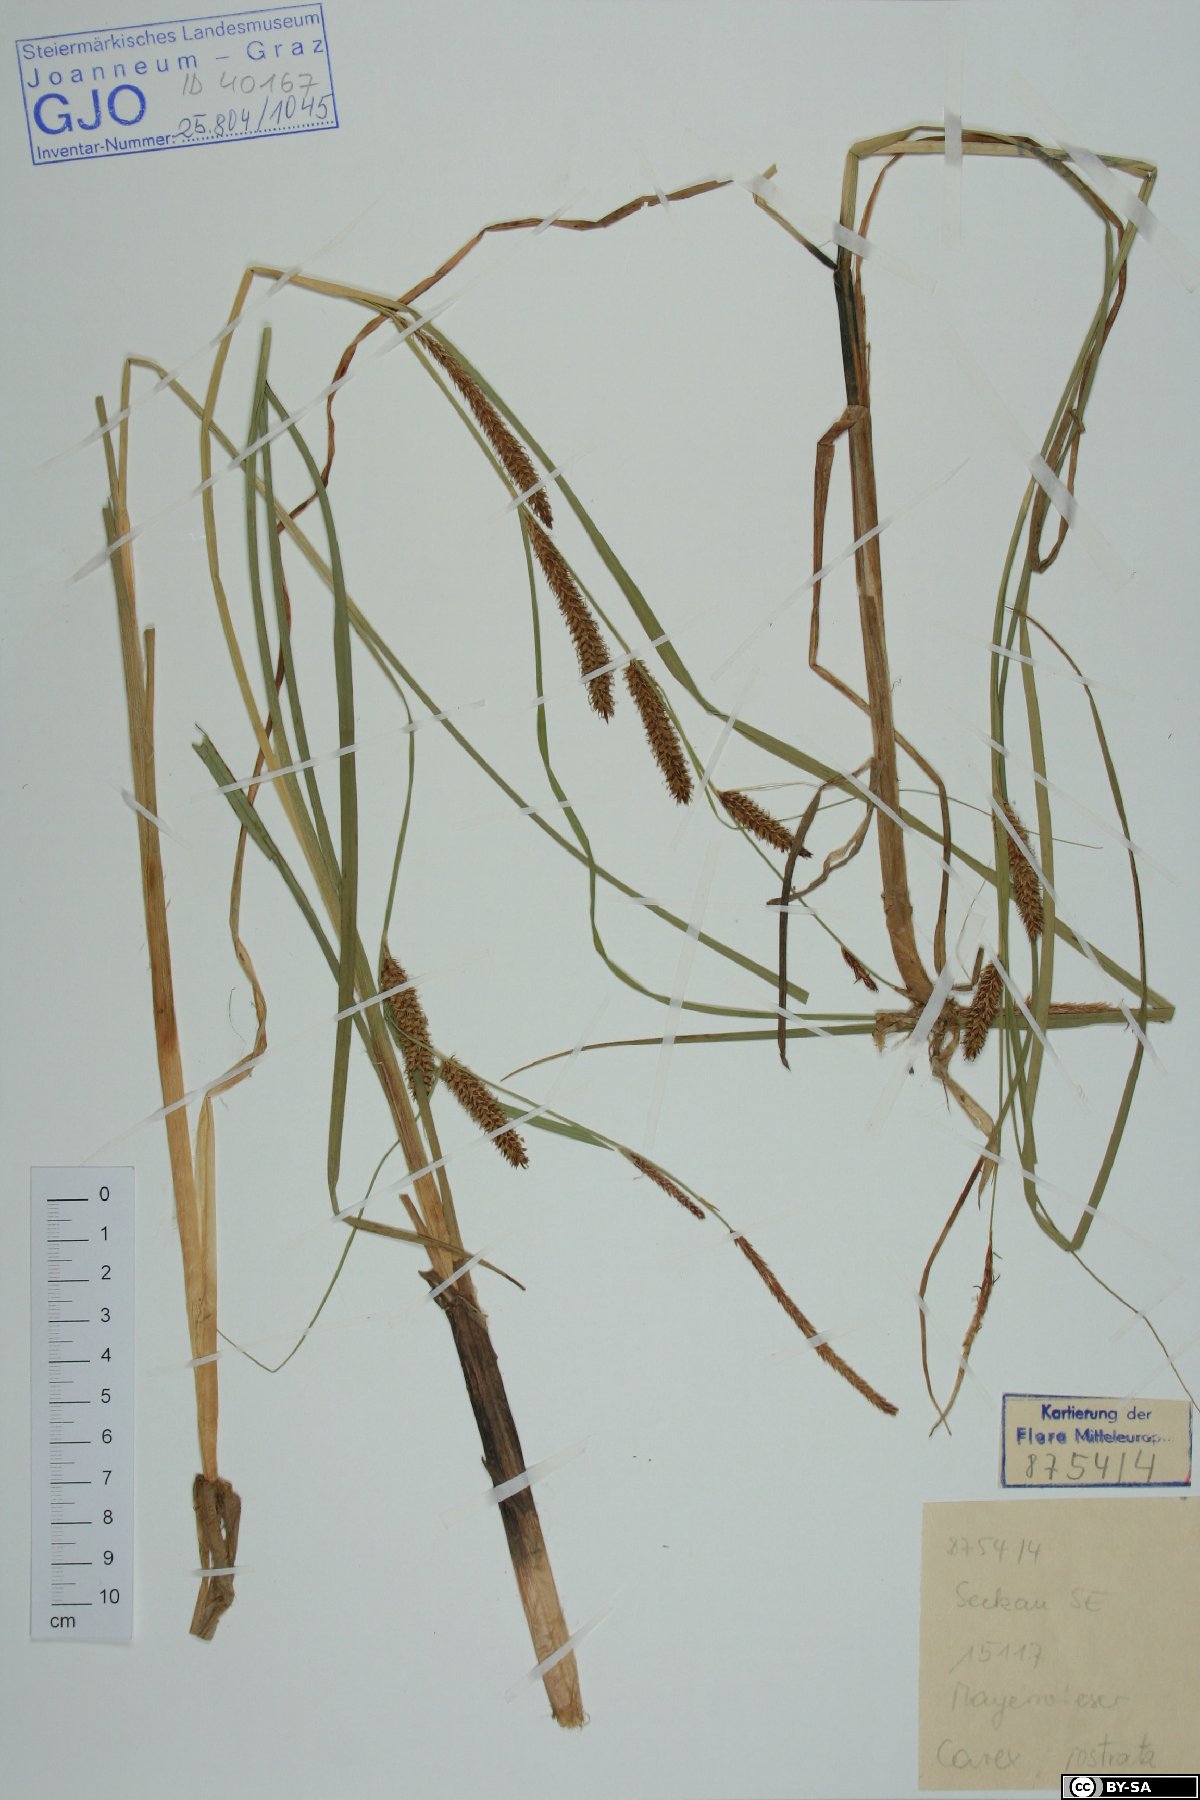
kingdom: Plantae
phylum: Tracheophyta
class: Liliopsida
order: Poales
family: Cyperaceae
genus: Carex
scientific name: Carex rostrata
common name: Bottle sedge
